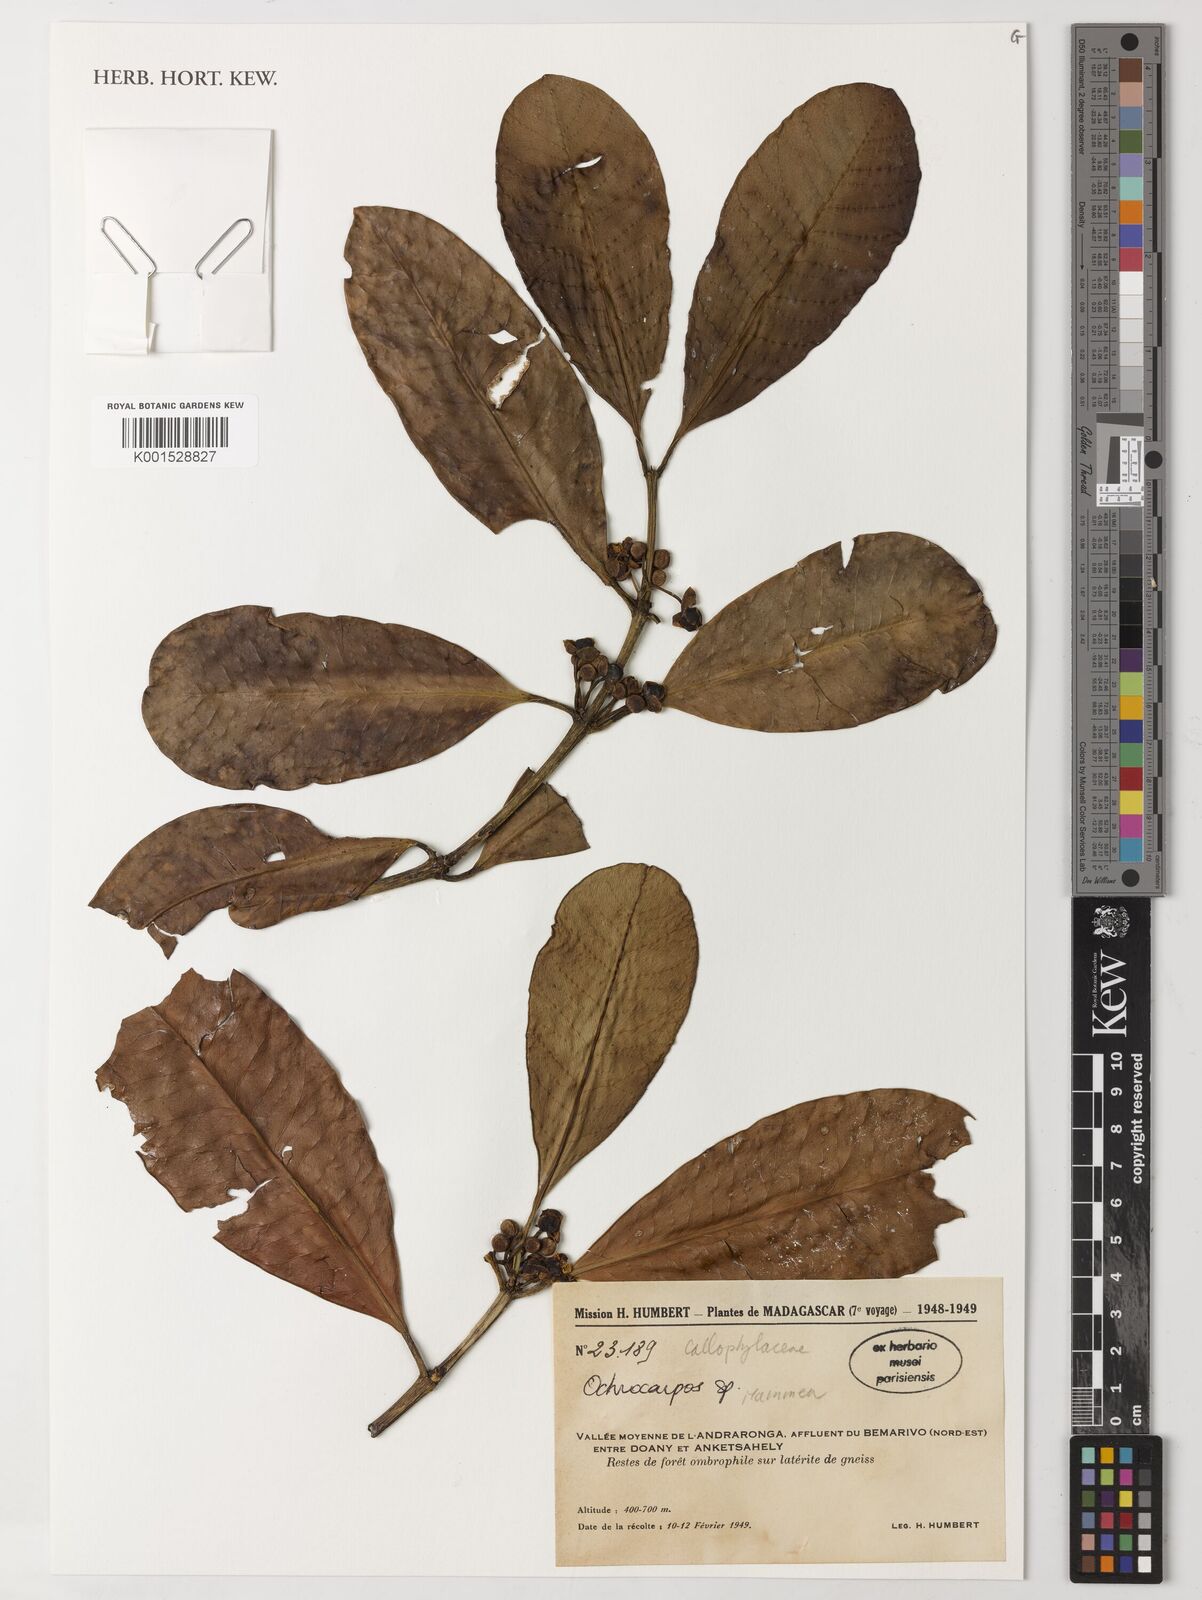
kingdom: Plantae
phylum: Tracheophyta
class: Magnoliopsida
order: Malpighiales
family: Calophyllaceae
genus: Mammea
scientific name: Mammea
